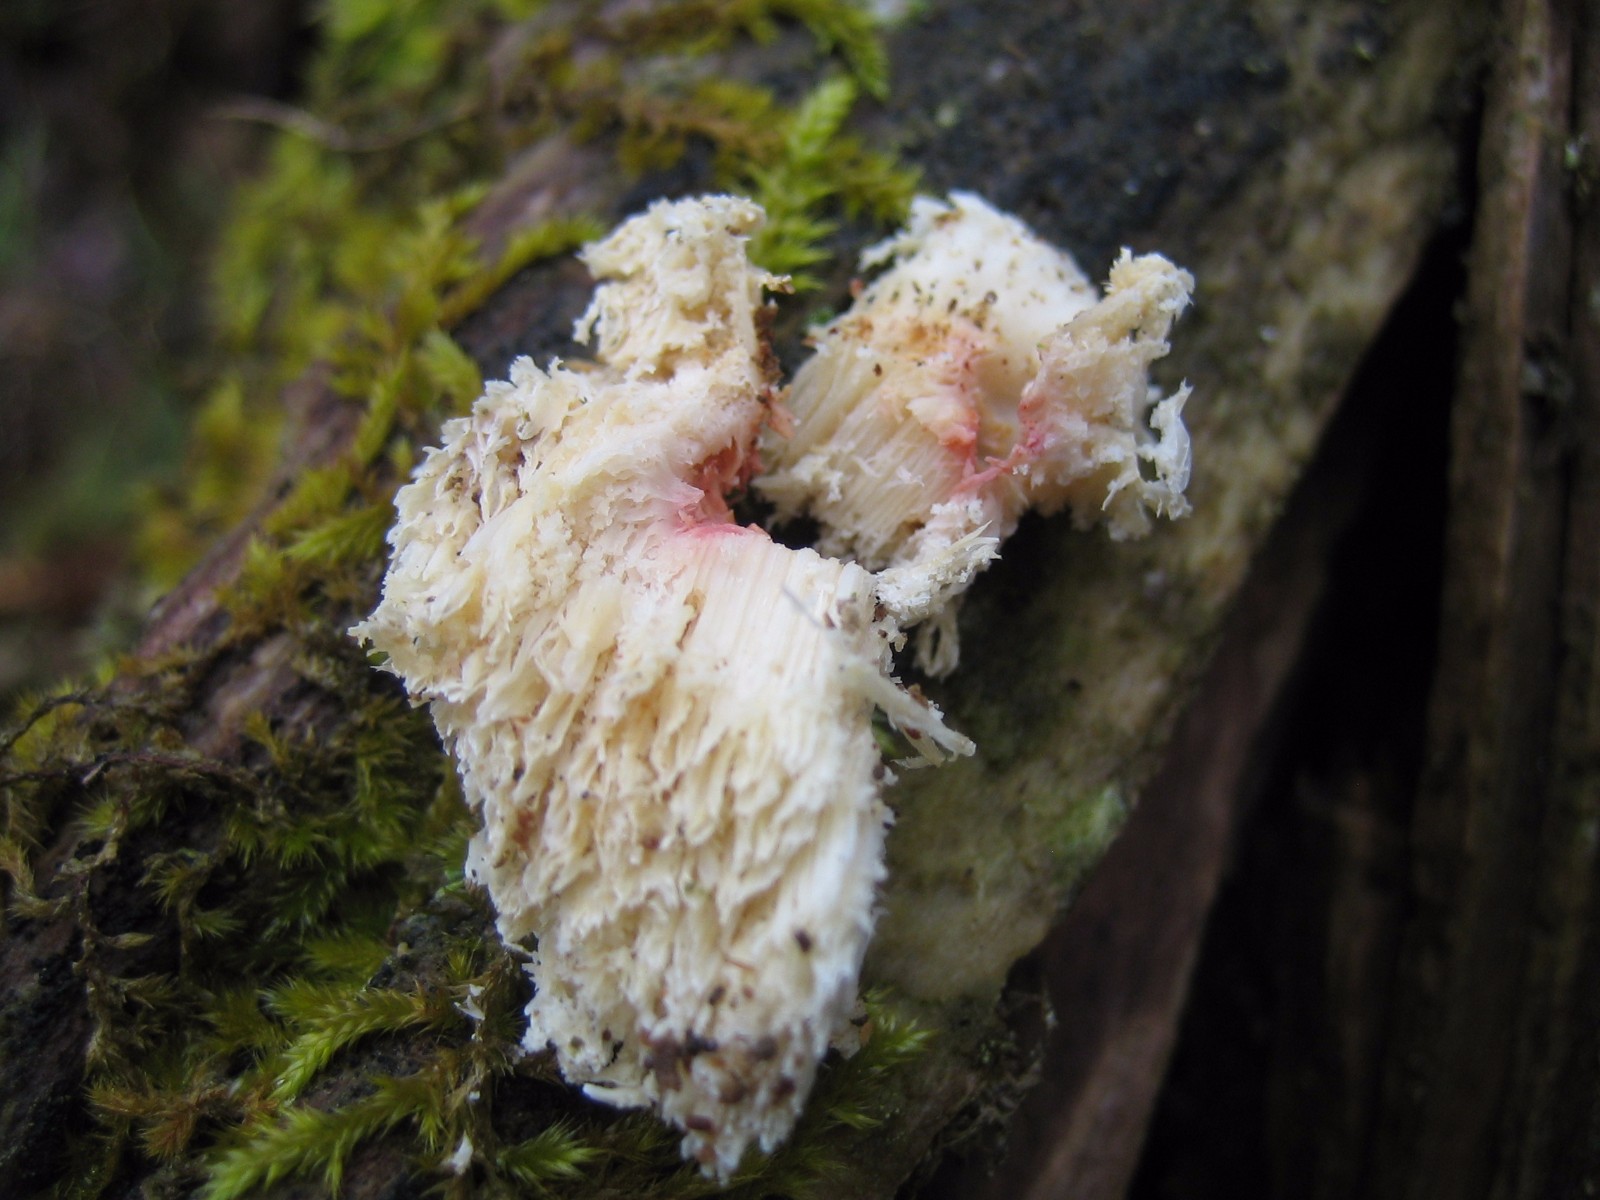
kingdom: Fungi
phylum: Basidiomycota
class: Agaricomycetes
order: Polyporales
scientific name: Polyporales
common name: poresvampordenen
